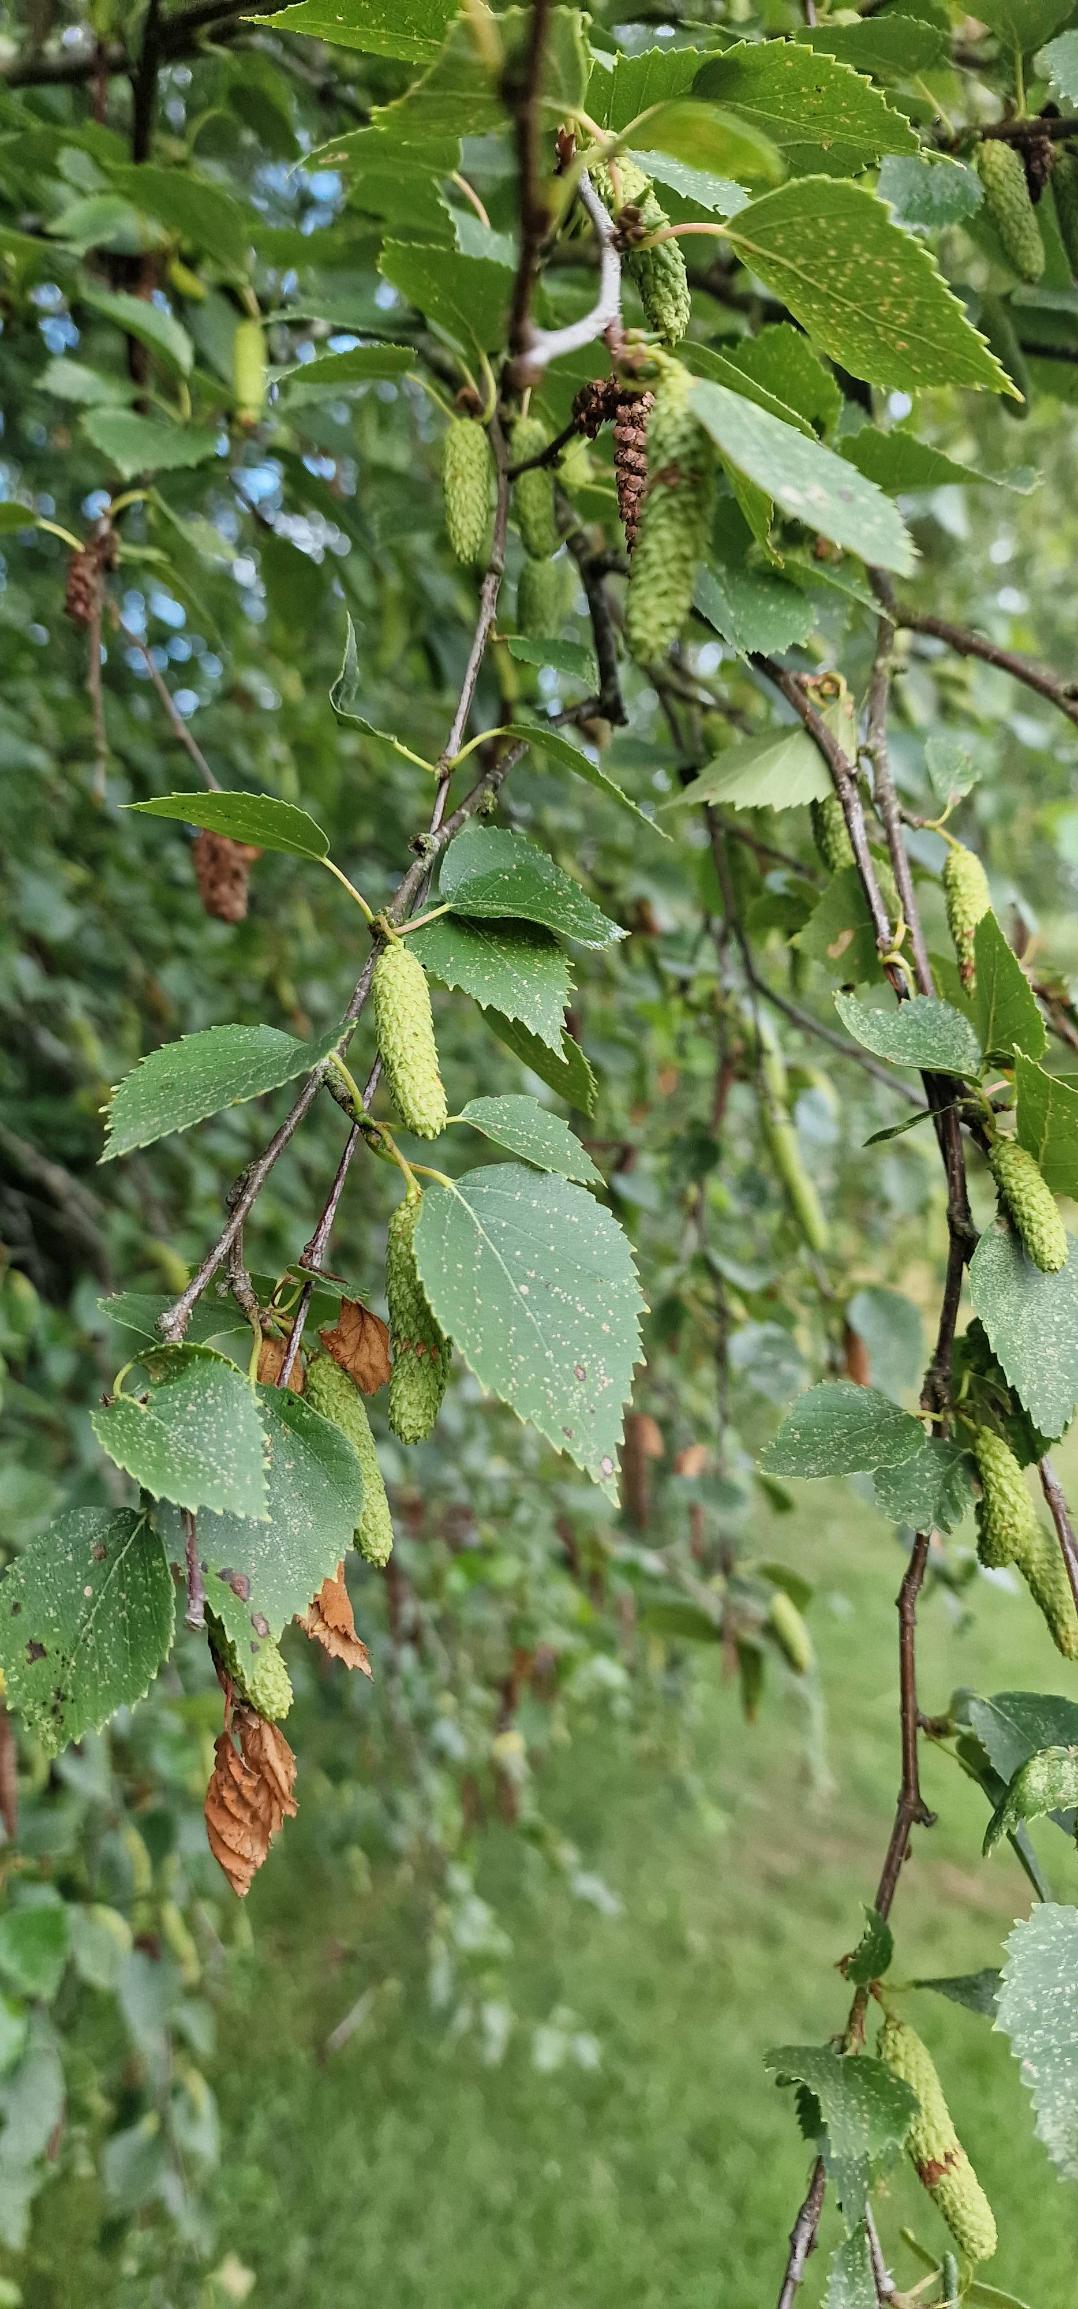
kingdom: Plantae
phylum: Tracheophyta
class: Magnoliopsida
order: Fagales
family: Betulaceae
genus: Betula
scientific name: Betula pendula
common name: Vorte-birk
